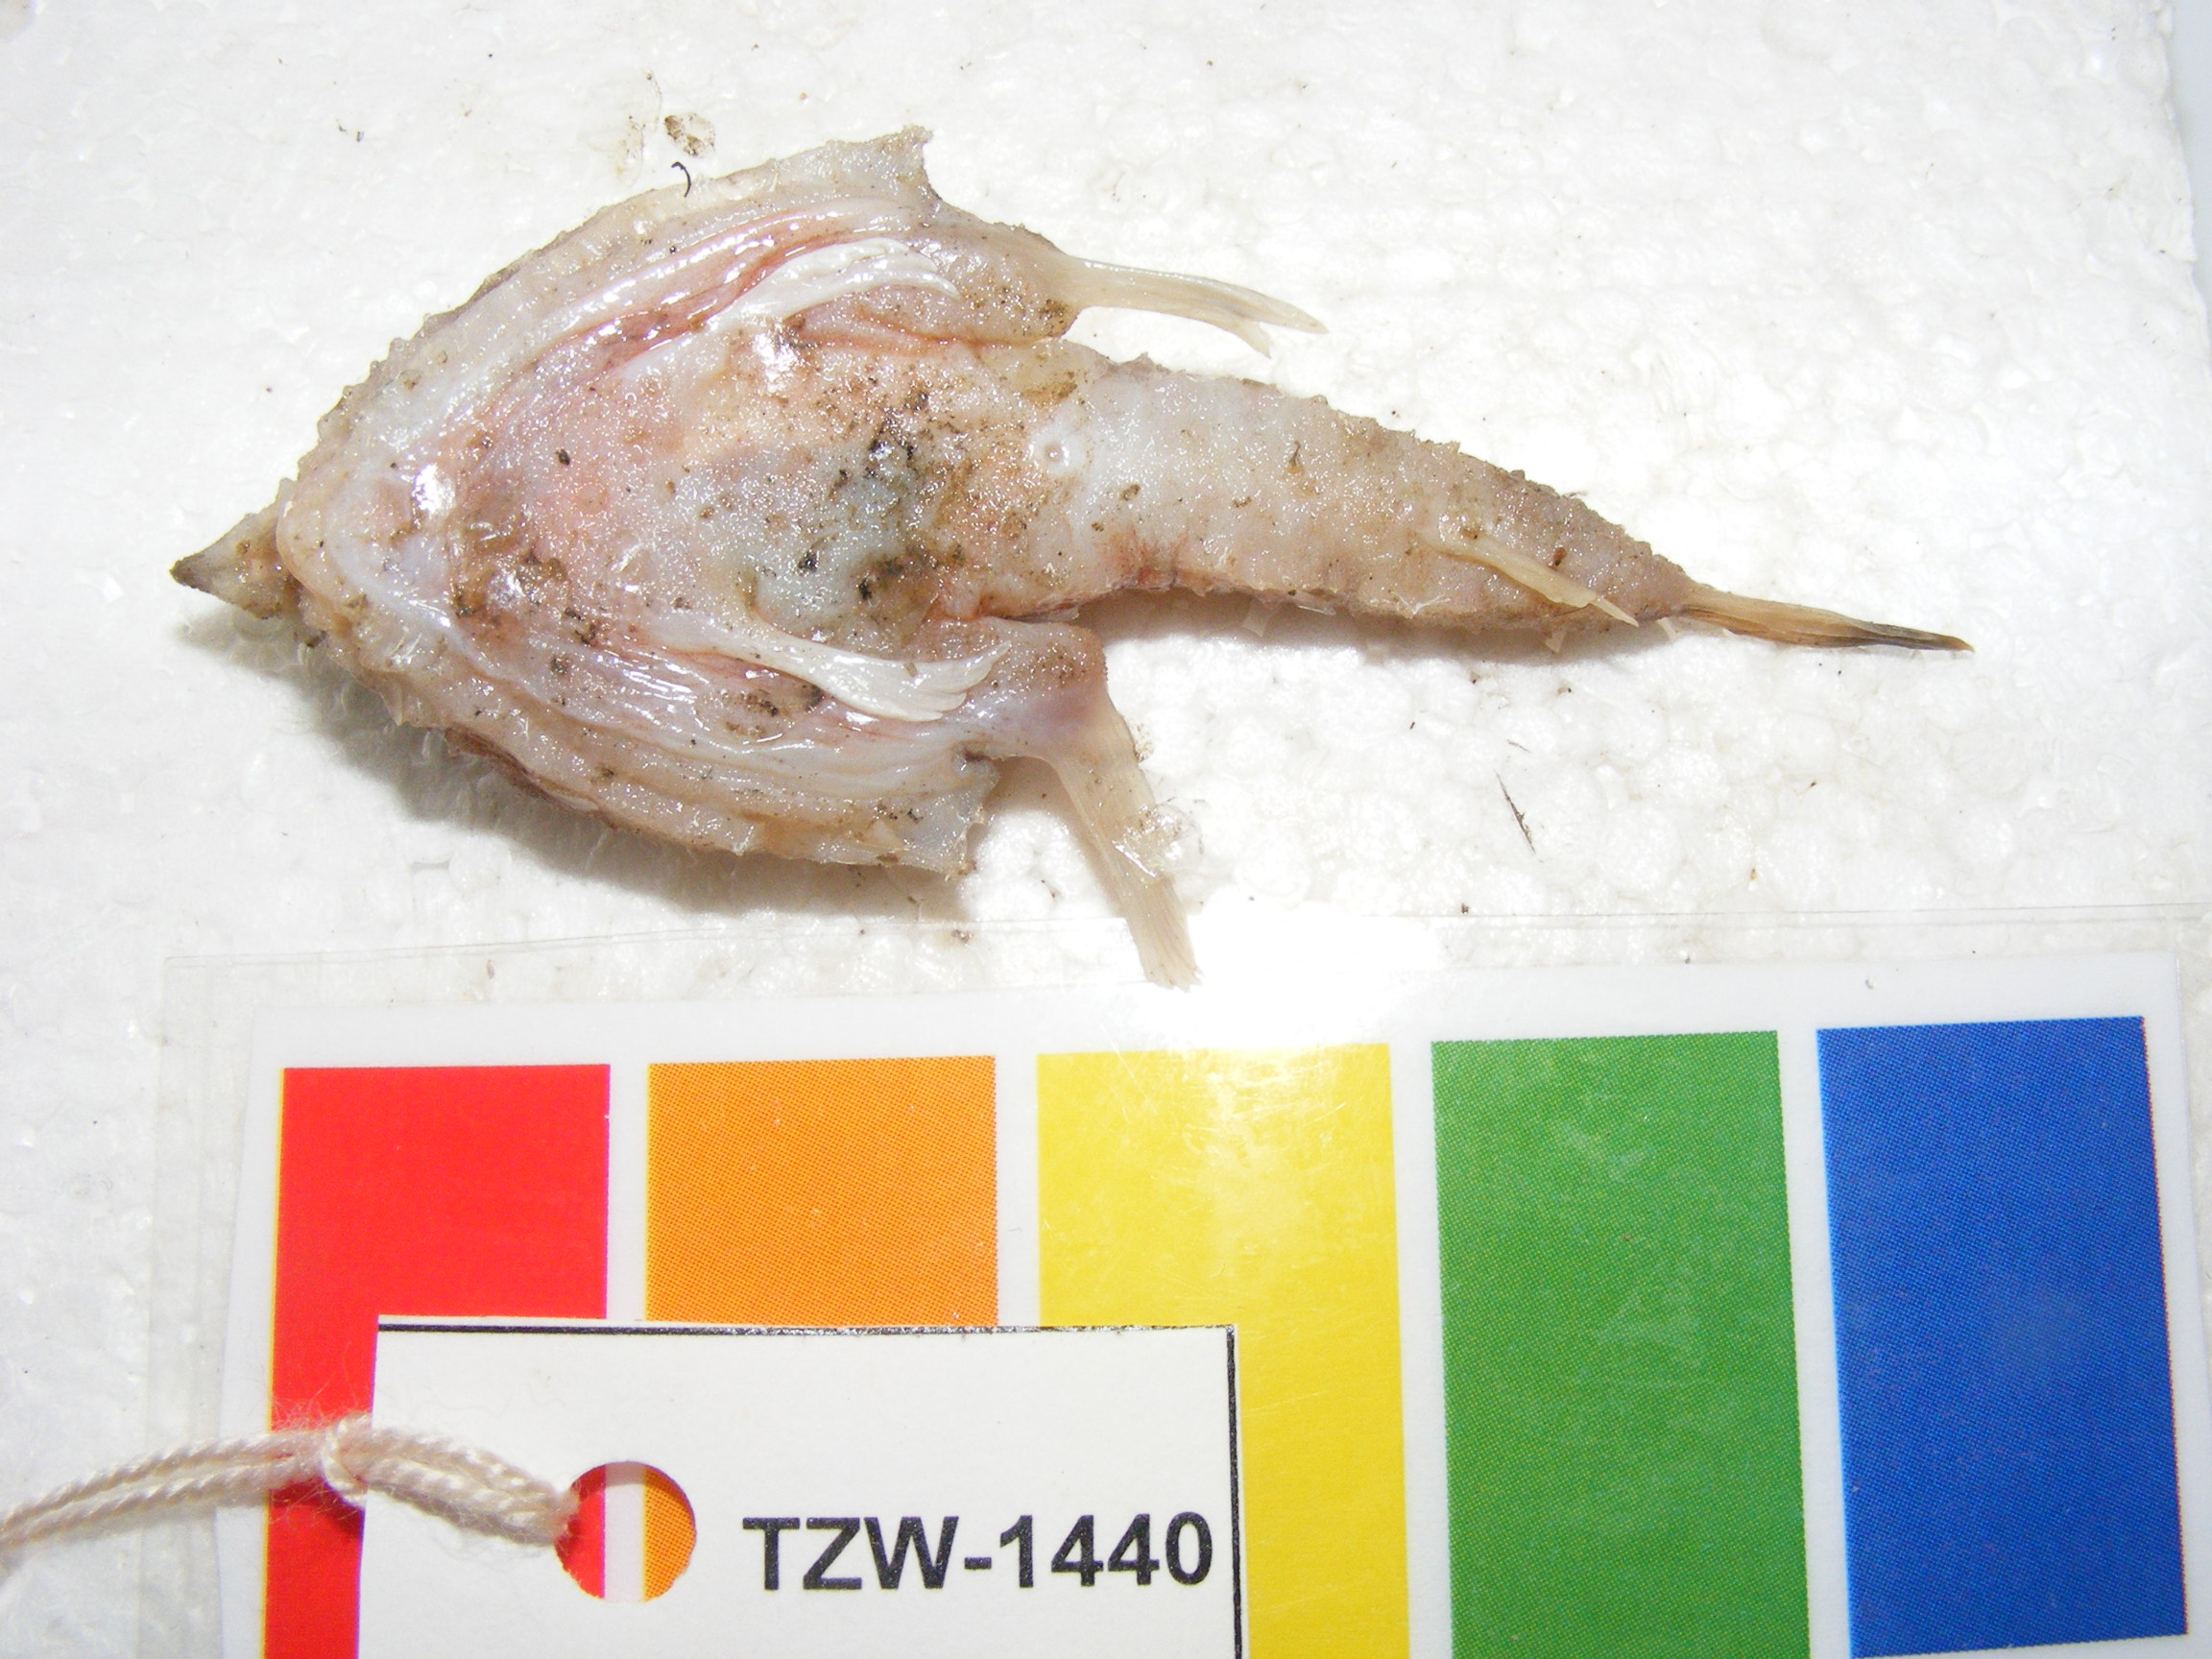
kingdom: Animalia
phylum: Chordata
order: Lophiiformes
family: Ogcocephalidae
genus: Malthopsis
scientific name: Malthopsis austrafricana
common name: South african triangular batfish
